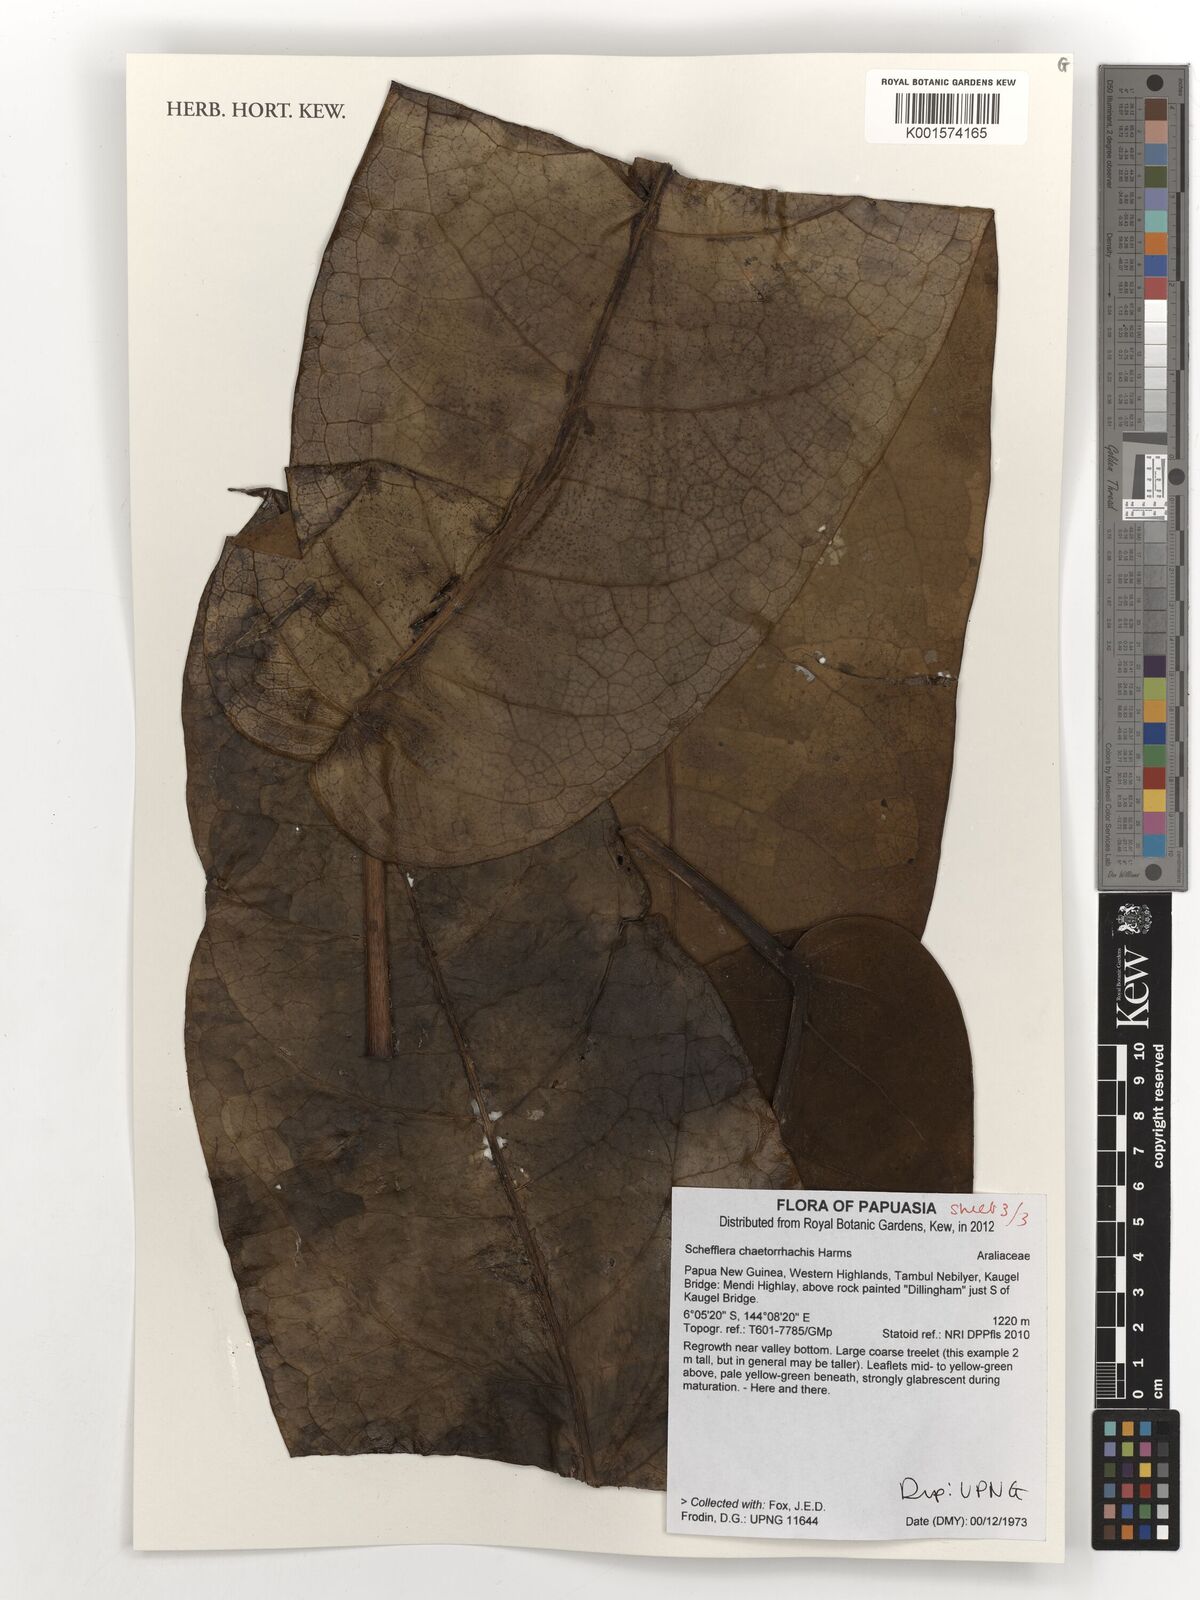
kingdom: Plantae
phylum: Tracheophyta
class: Magnoliopsida
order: Apiales
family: Araliaceae
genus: Heptapleurum
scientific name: Heptapleurum chaetorrhachis
